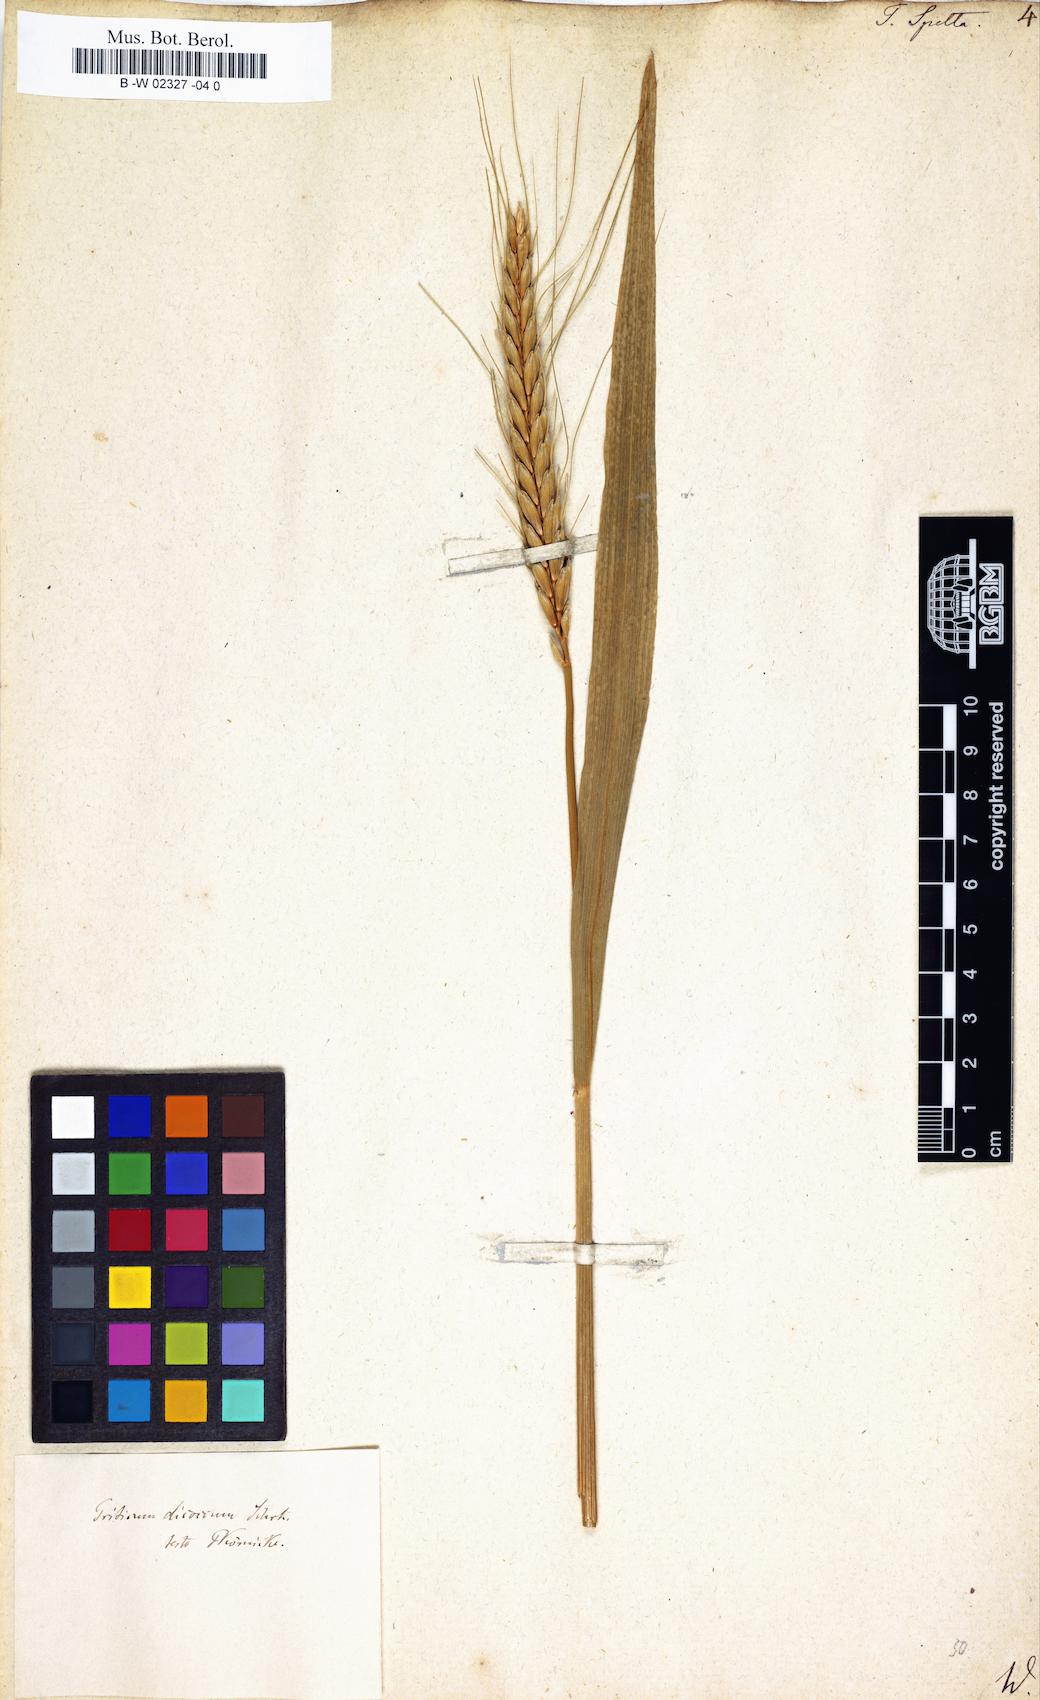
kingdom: Plantae
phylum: Tracheophyta
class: Liliopsida
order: Poales
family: Poaceae
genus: Triticum
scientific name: Triticum aestivum
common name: Common wheat
